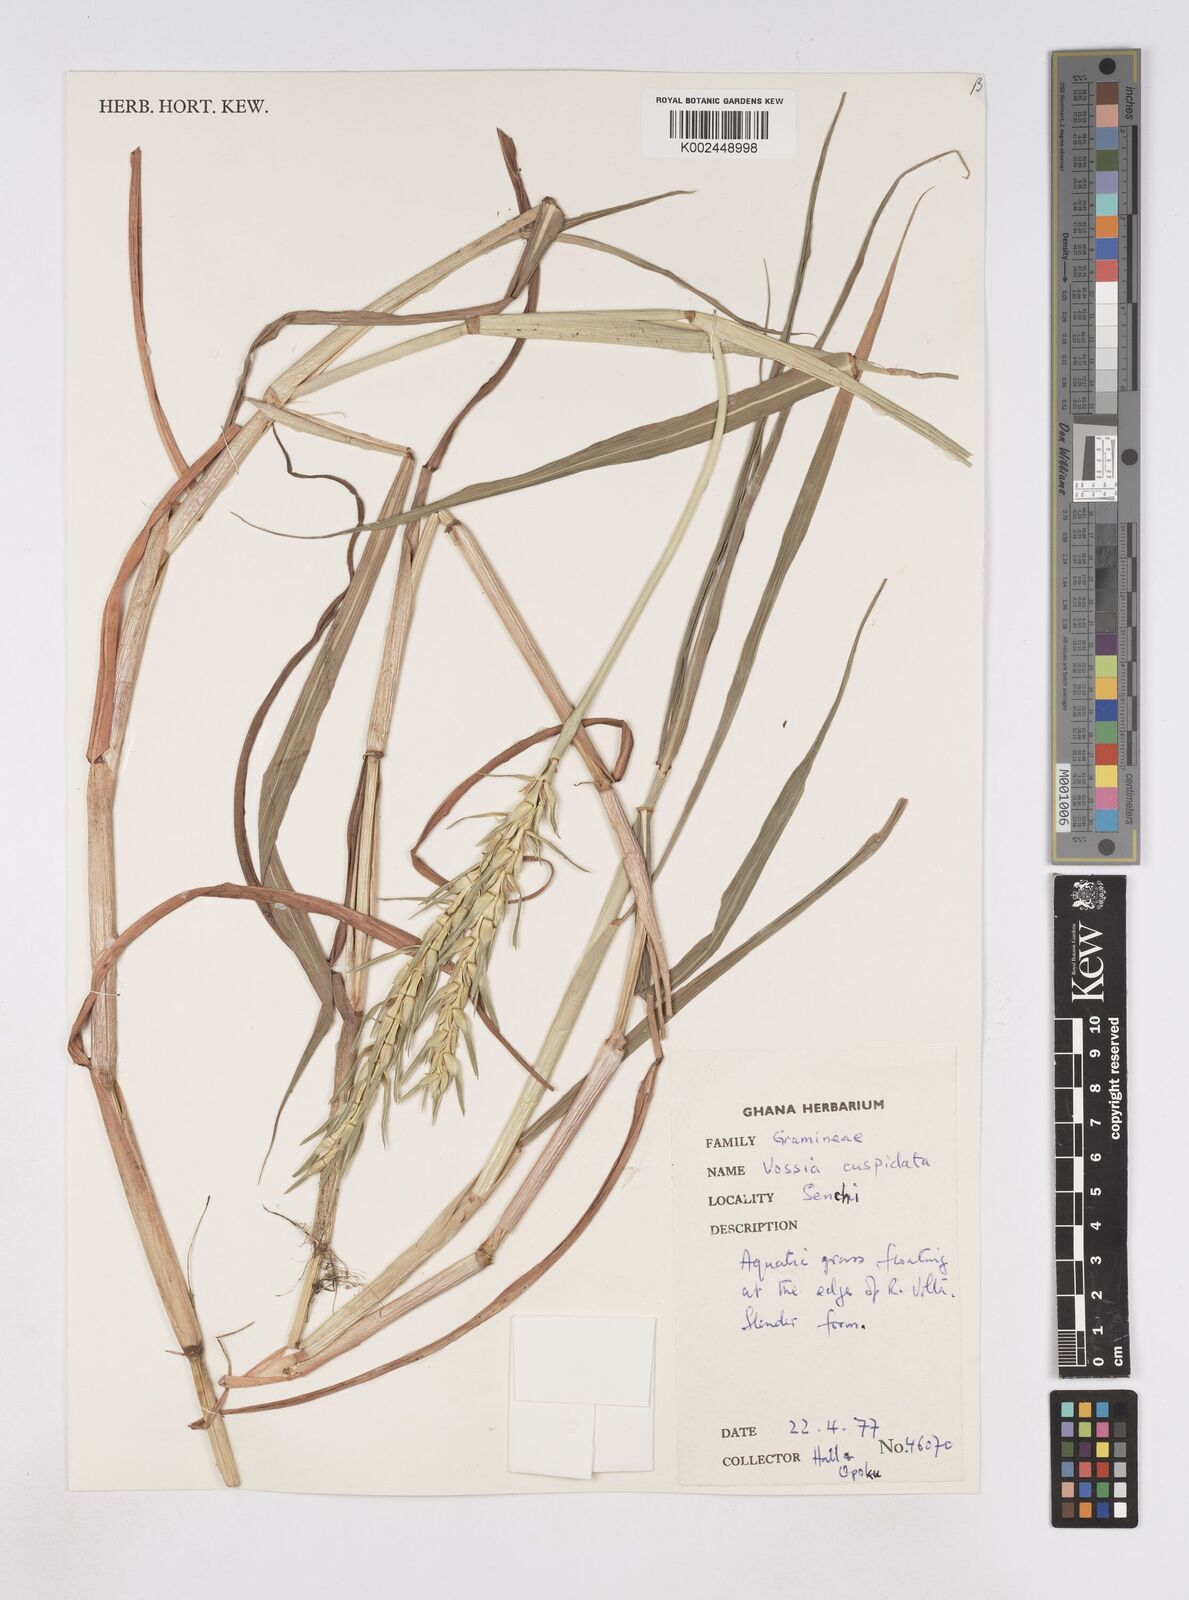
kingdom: Plantae
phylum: Tracheophyta
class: Liliopsida
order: Poales
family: Poaceae
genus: Vossia
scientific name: Vossia cuspidata
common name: Hippo grass
